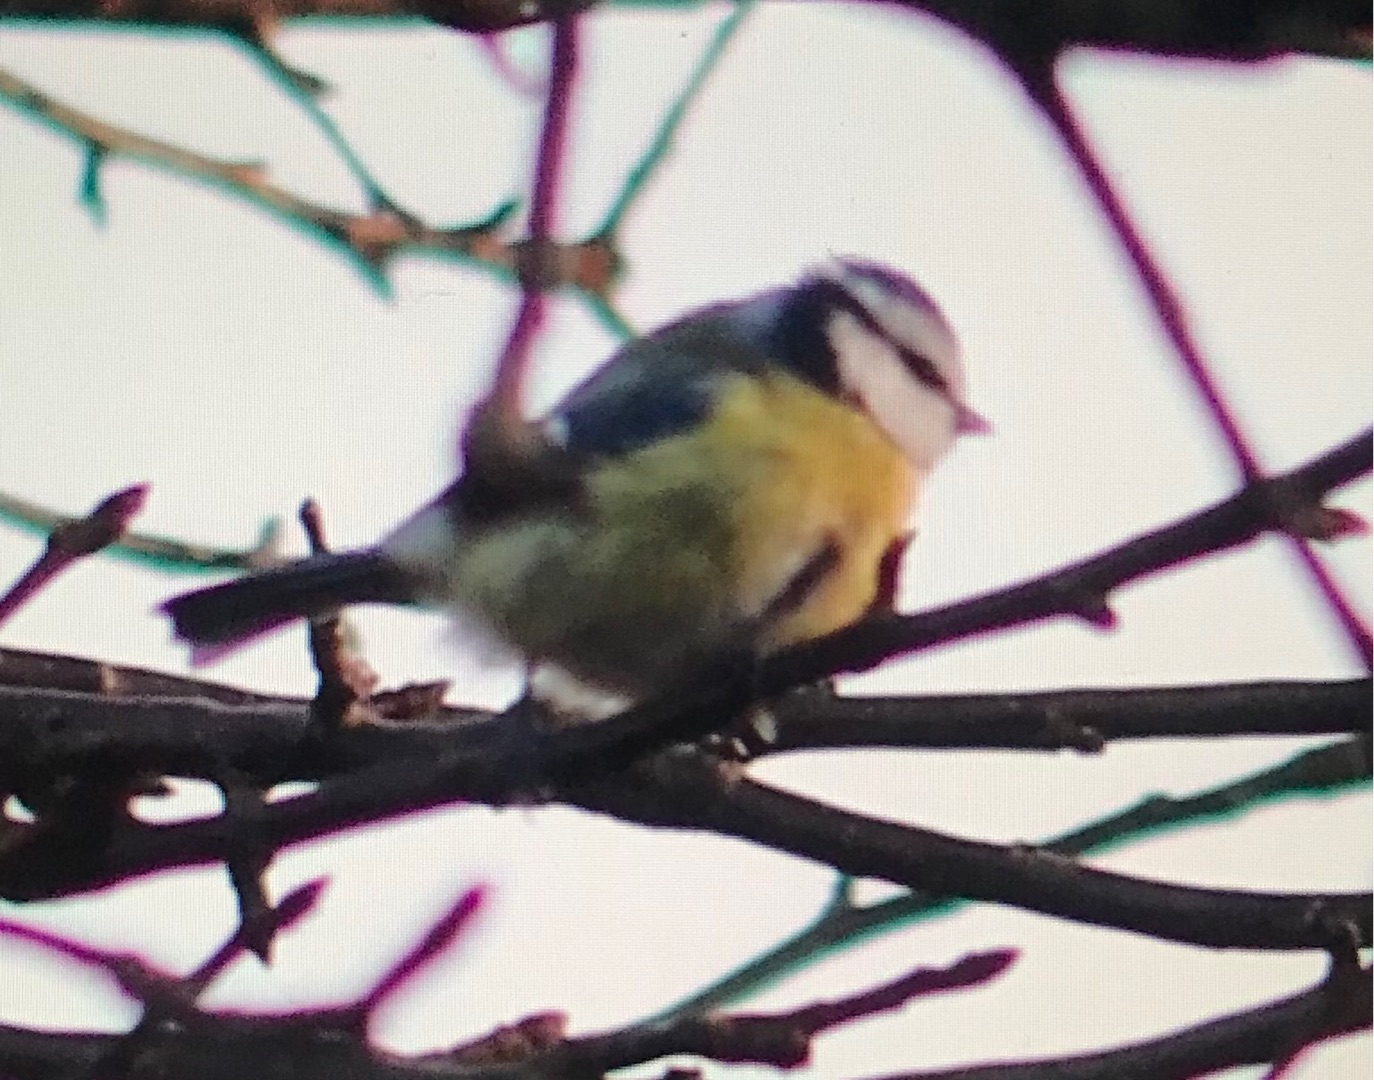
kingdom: Animalia
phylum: Chordata
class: Aves
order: Passeriformes
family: Paridae
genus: Cyanistes
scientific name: Cyanistes caeruleus
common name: Blåmejse
